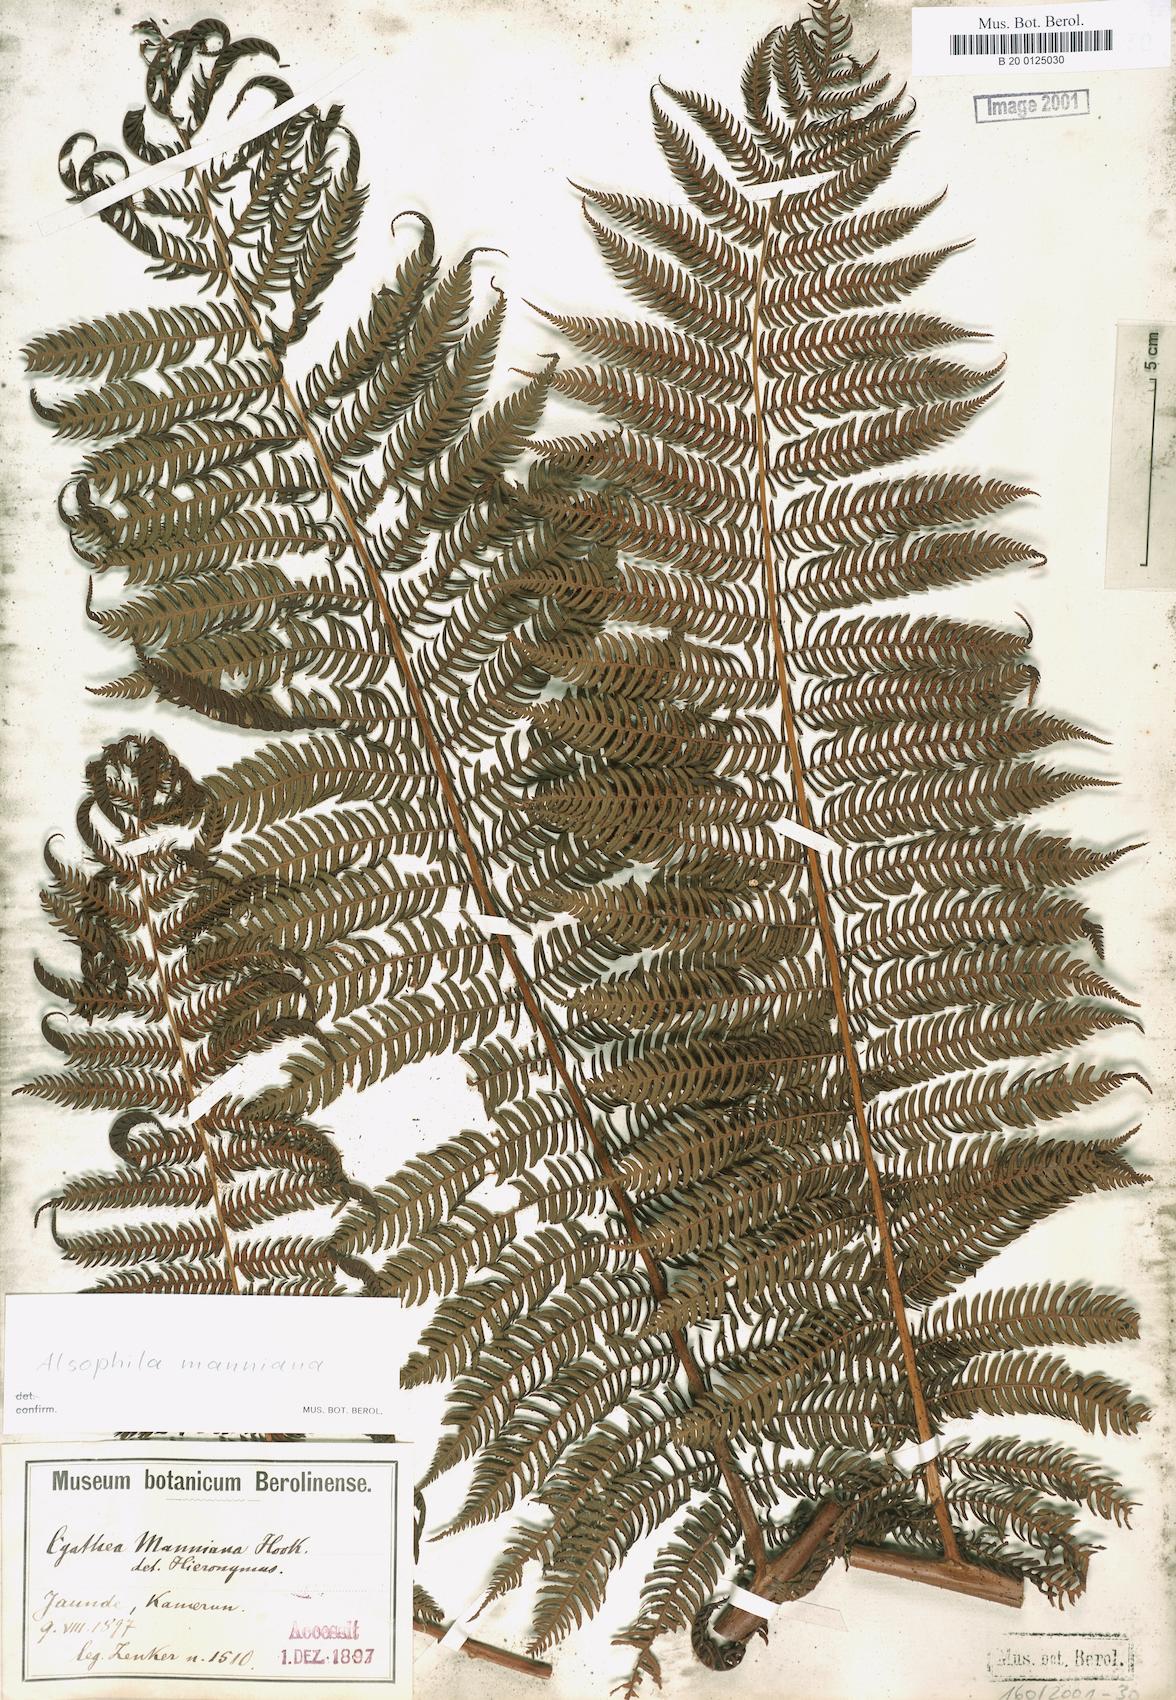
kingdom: Plantae
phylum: Tracheophyta
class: Polypodiopsida
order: Cyatheales
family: Cyatheaceae
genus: Alsophila
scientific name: Alsophila manniana
